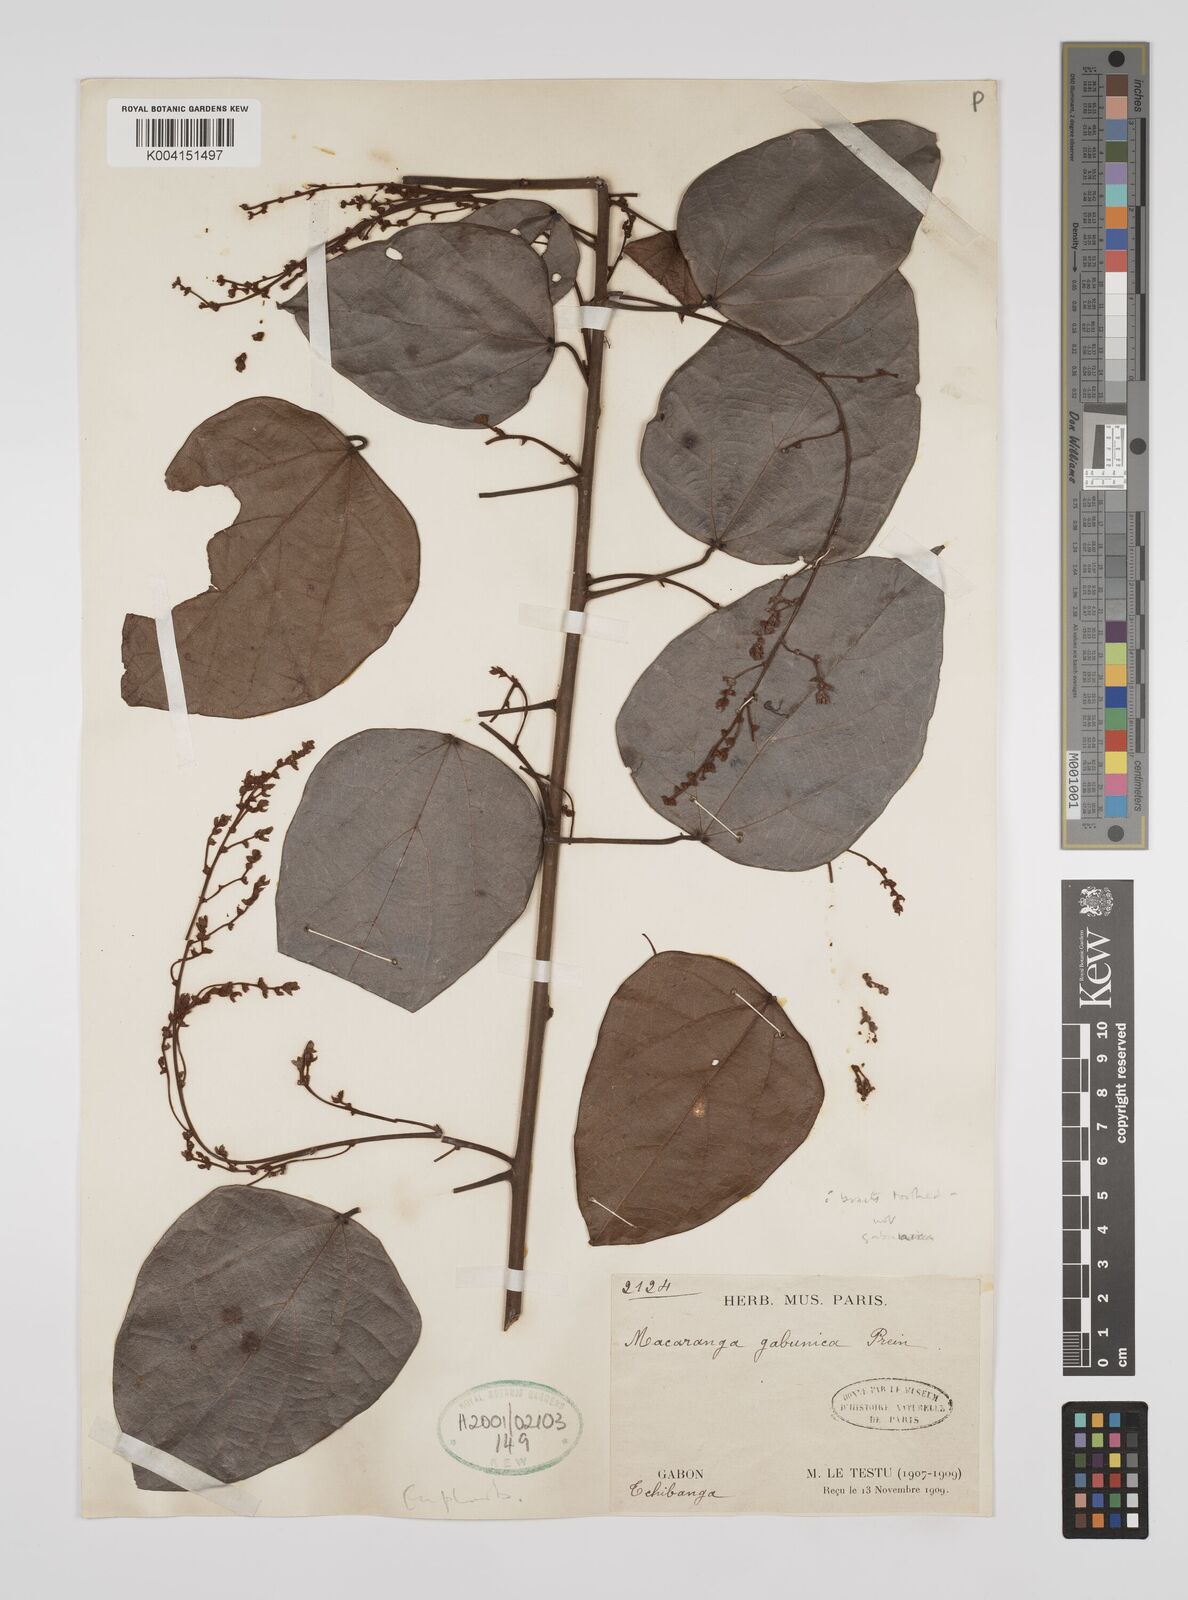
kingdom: Plantae
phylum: Tracheophyta
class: Magnoliopsida
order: Malpighiales
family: Euphorbiaceae
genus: Macaranga
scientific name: Macaranga gabunica
